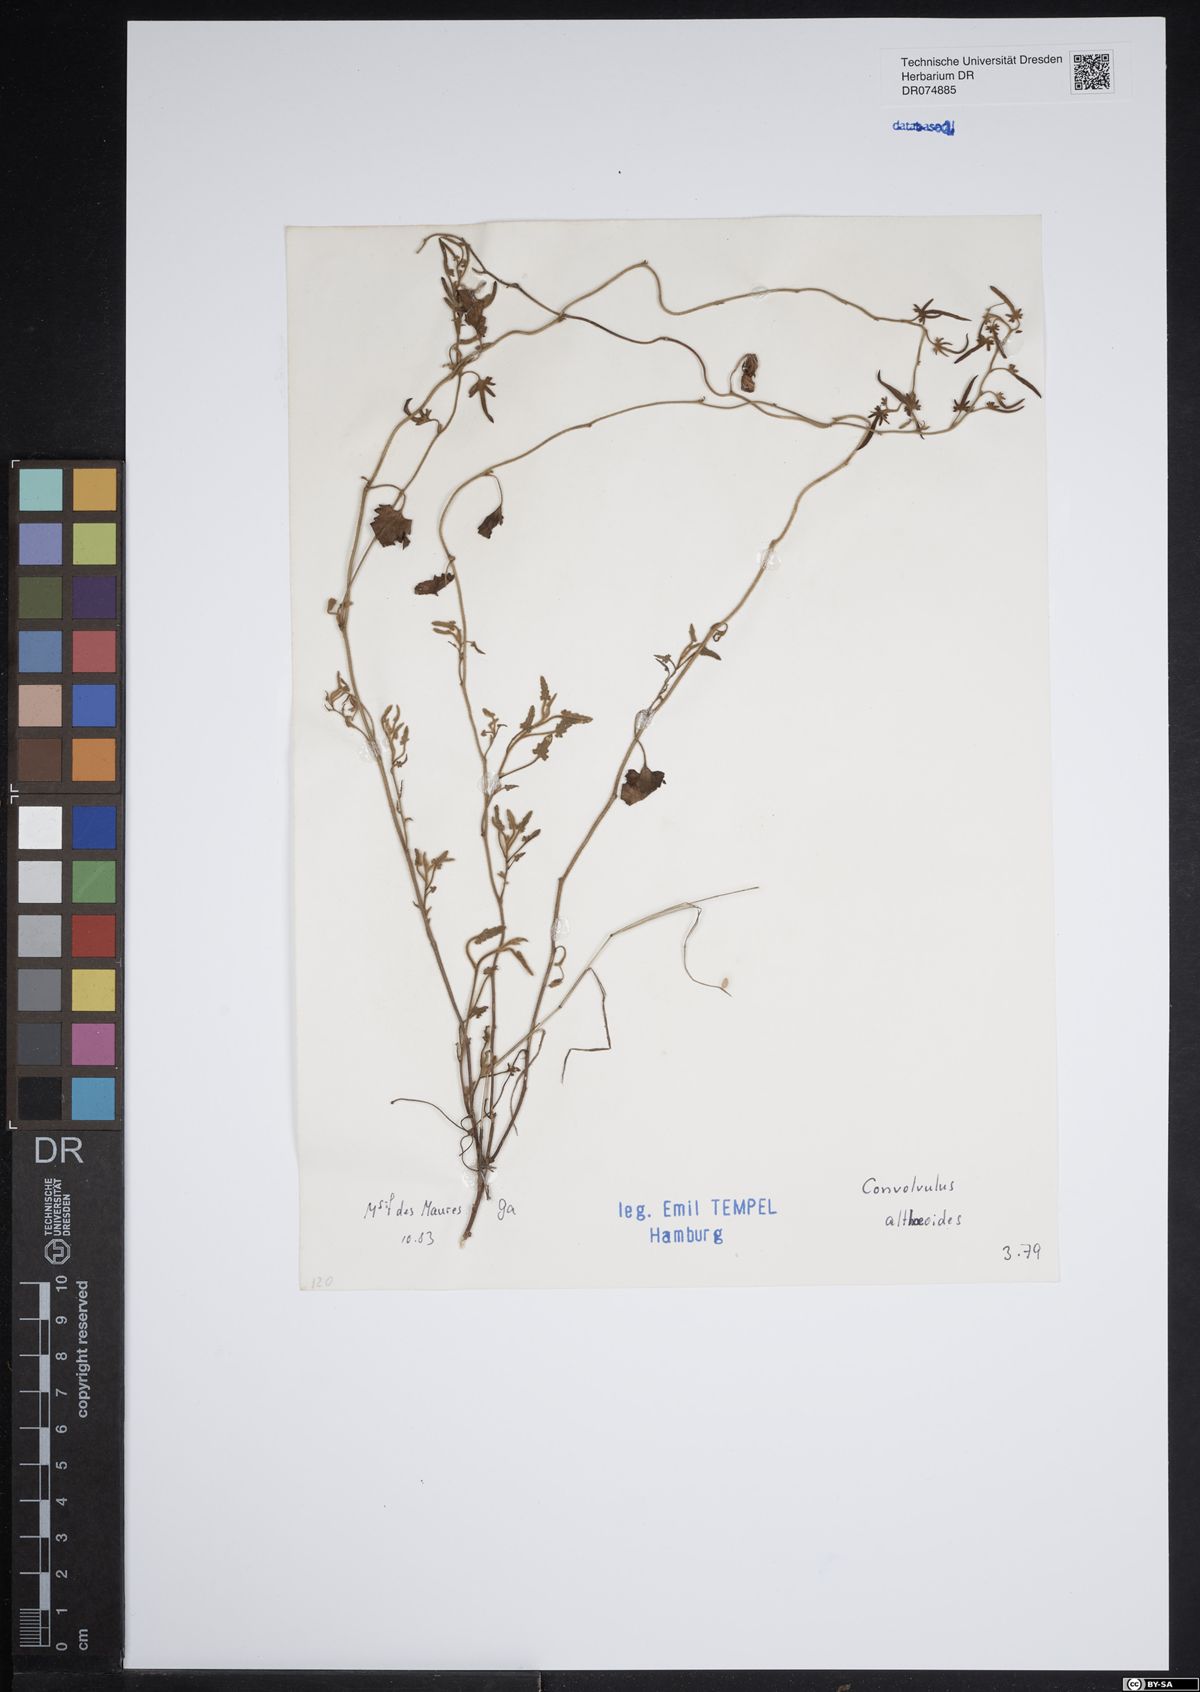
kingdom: Plantae
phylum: Tracheophyta
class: Magnoliopsida
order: Solanales
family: Convolvulaceae
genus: Convolvulus
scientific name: Convolvulus althaeoides
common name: Mallow bindweed
